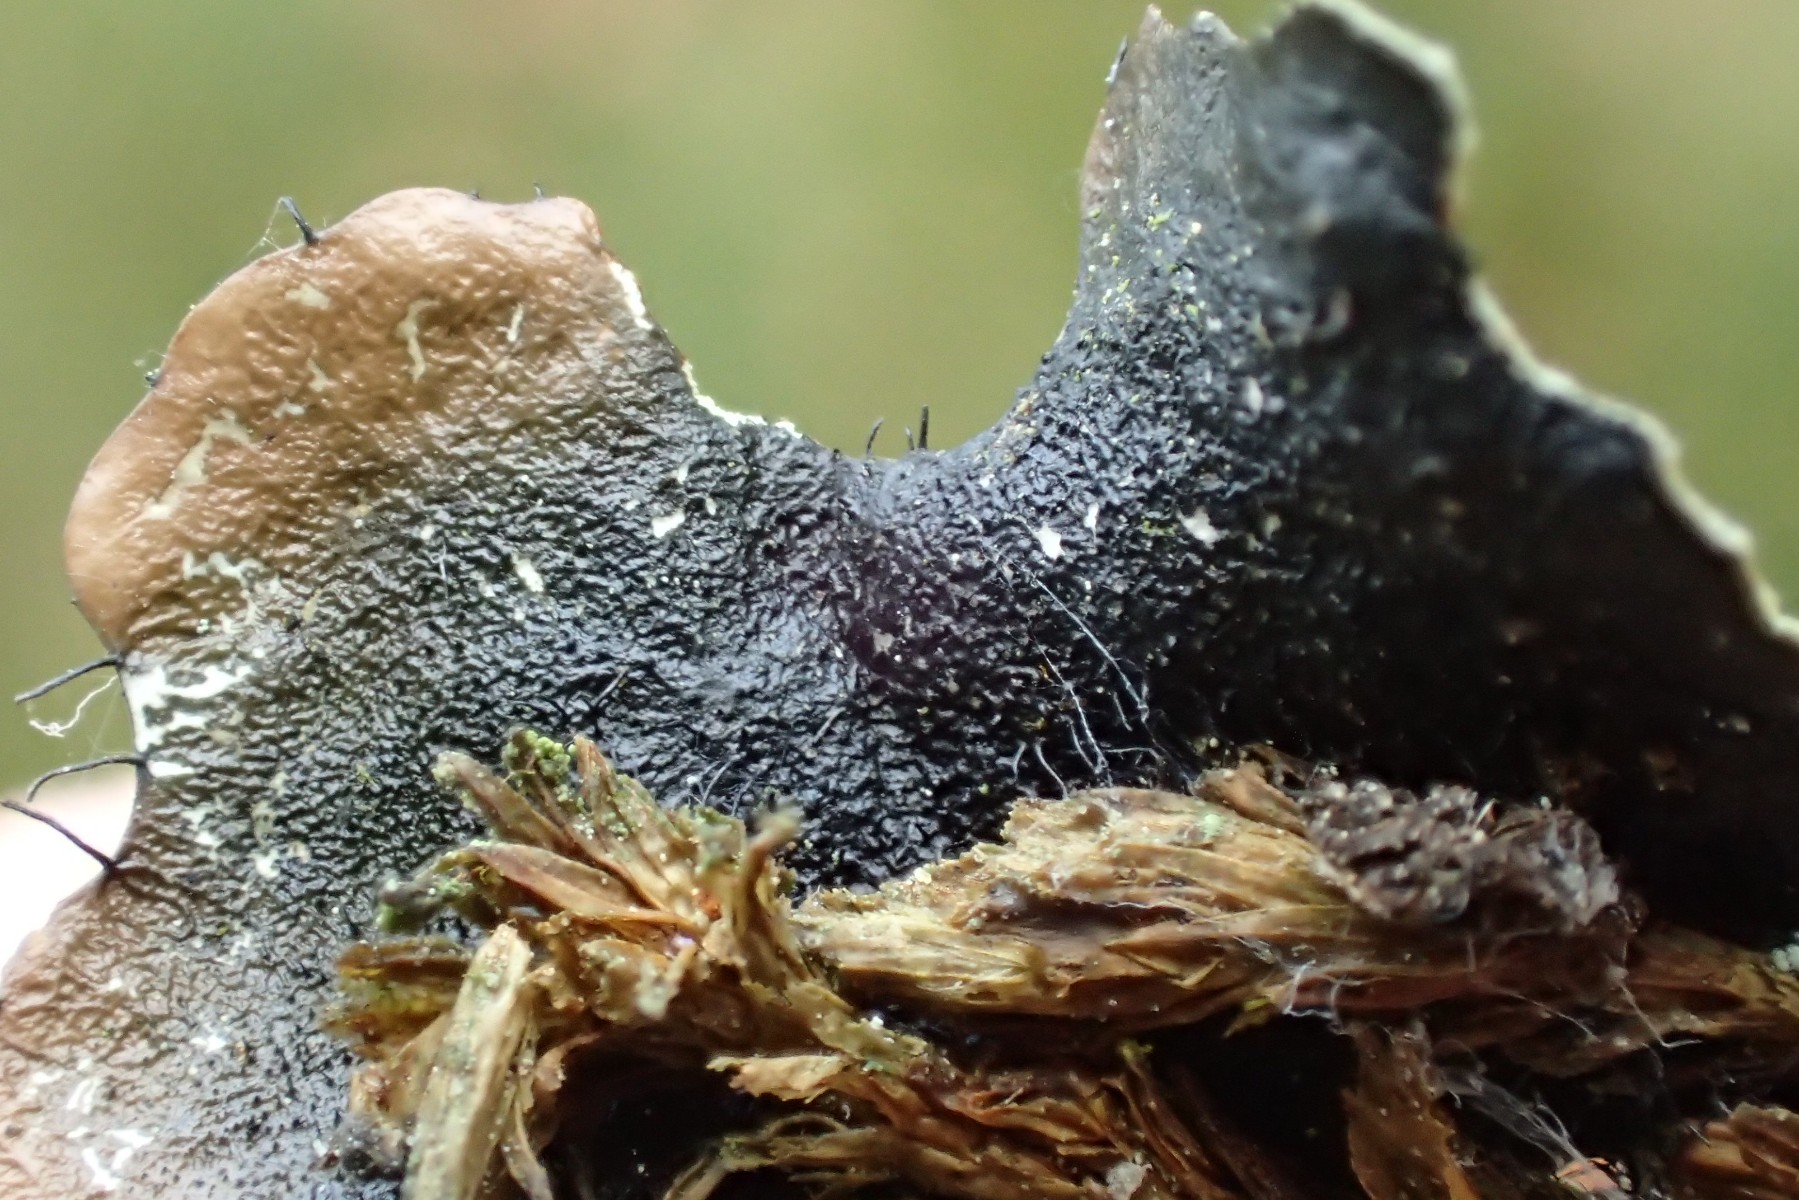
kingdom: Fungi
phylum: Ascomycota
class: Lecanoromycetes
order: Lecanorales
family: Parmeliaceae
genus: Parmotrema
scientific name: Parmotrema perlatum
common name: trådet skållav
